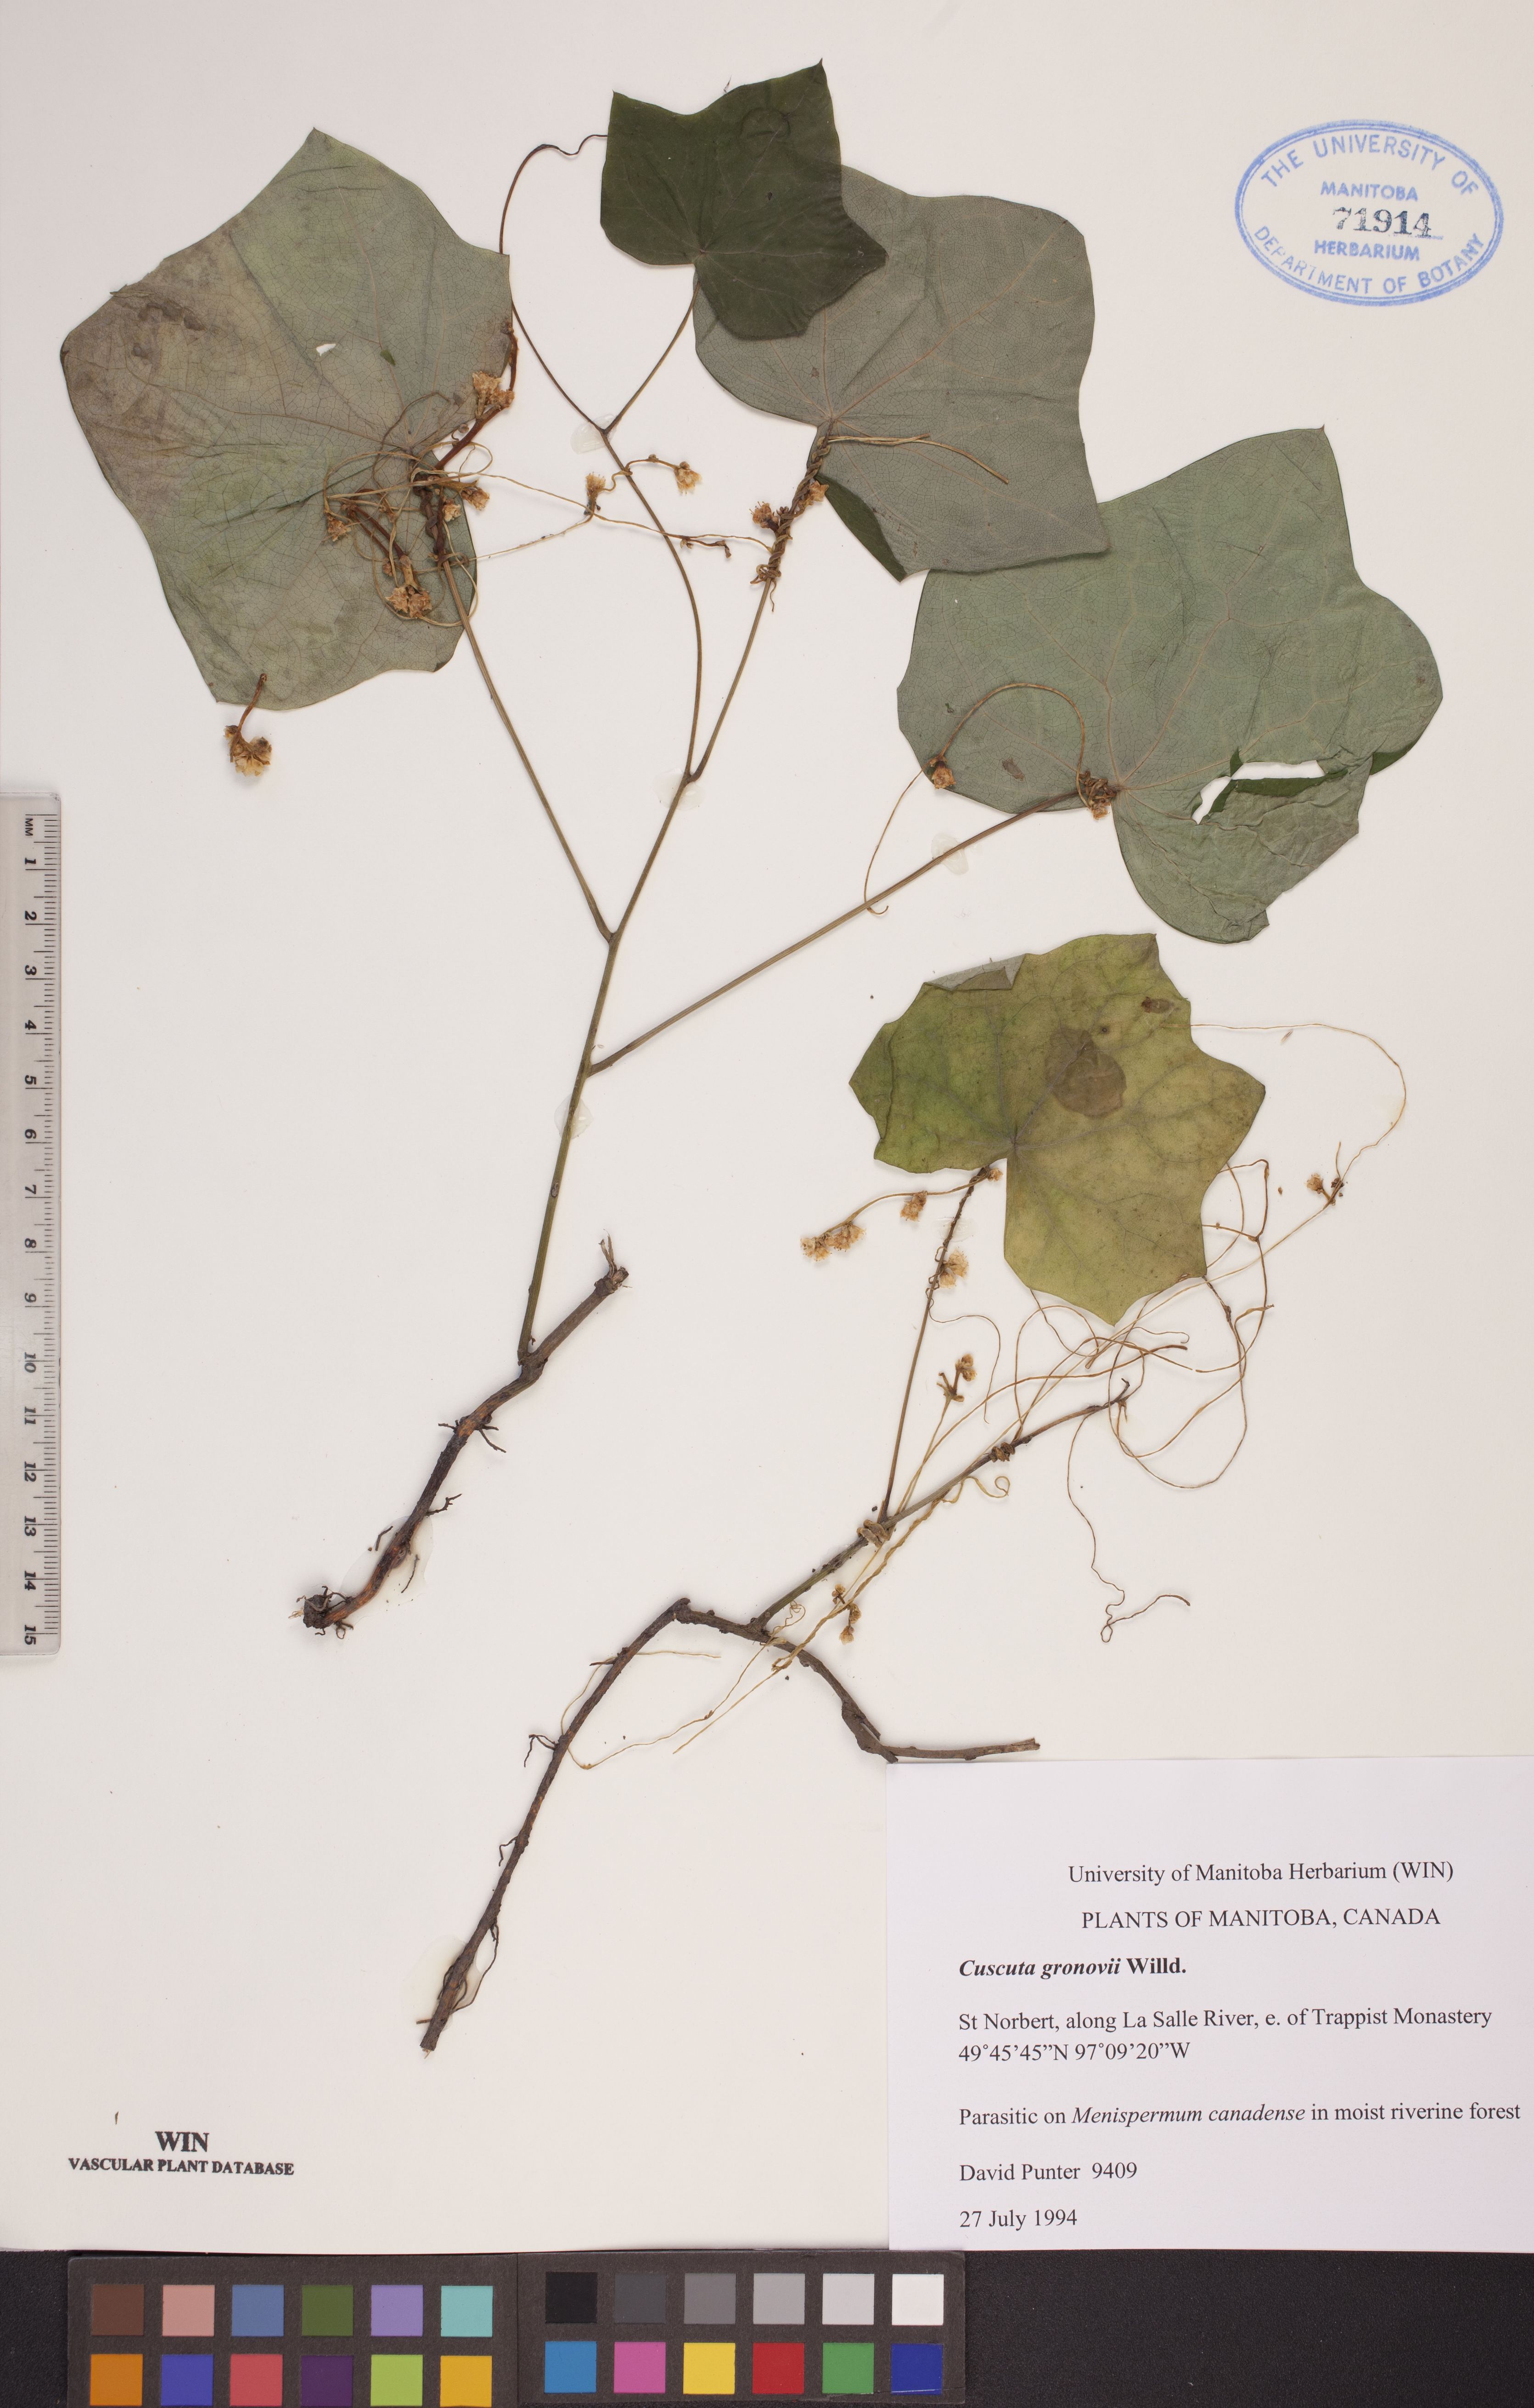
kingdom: Plantae
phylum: Tracheophyta
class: Magnoliopsida
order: Solanales
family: Convolvulaceae
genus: Cuscuta
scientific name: Cuscuta gronovii
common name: Common dodder
